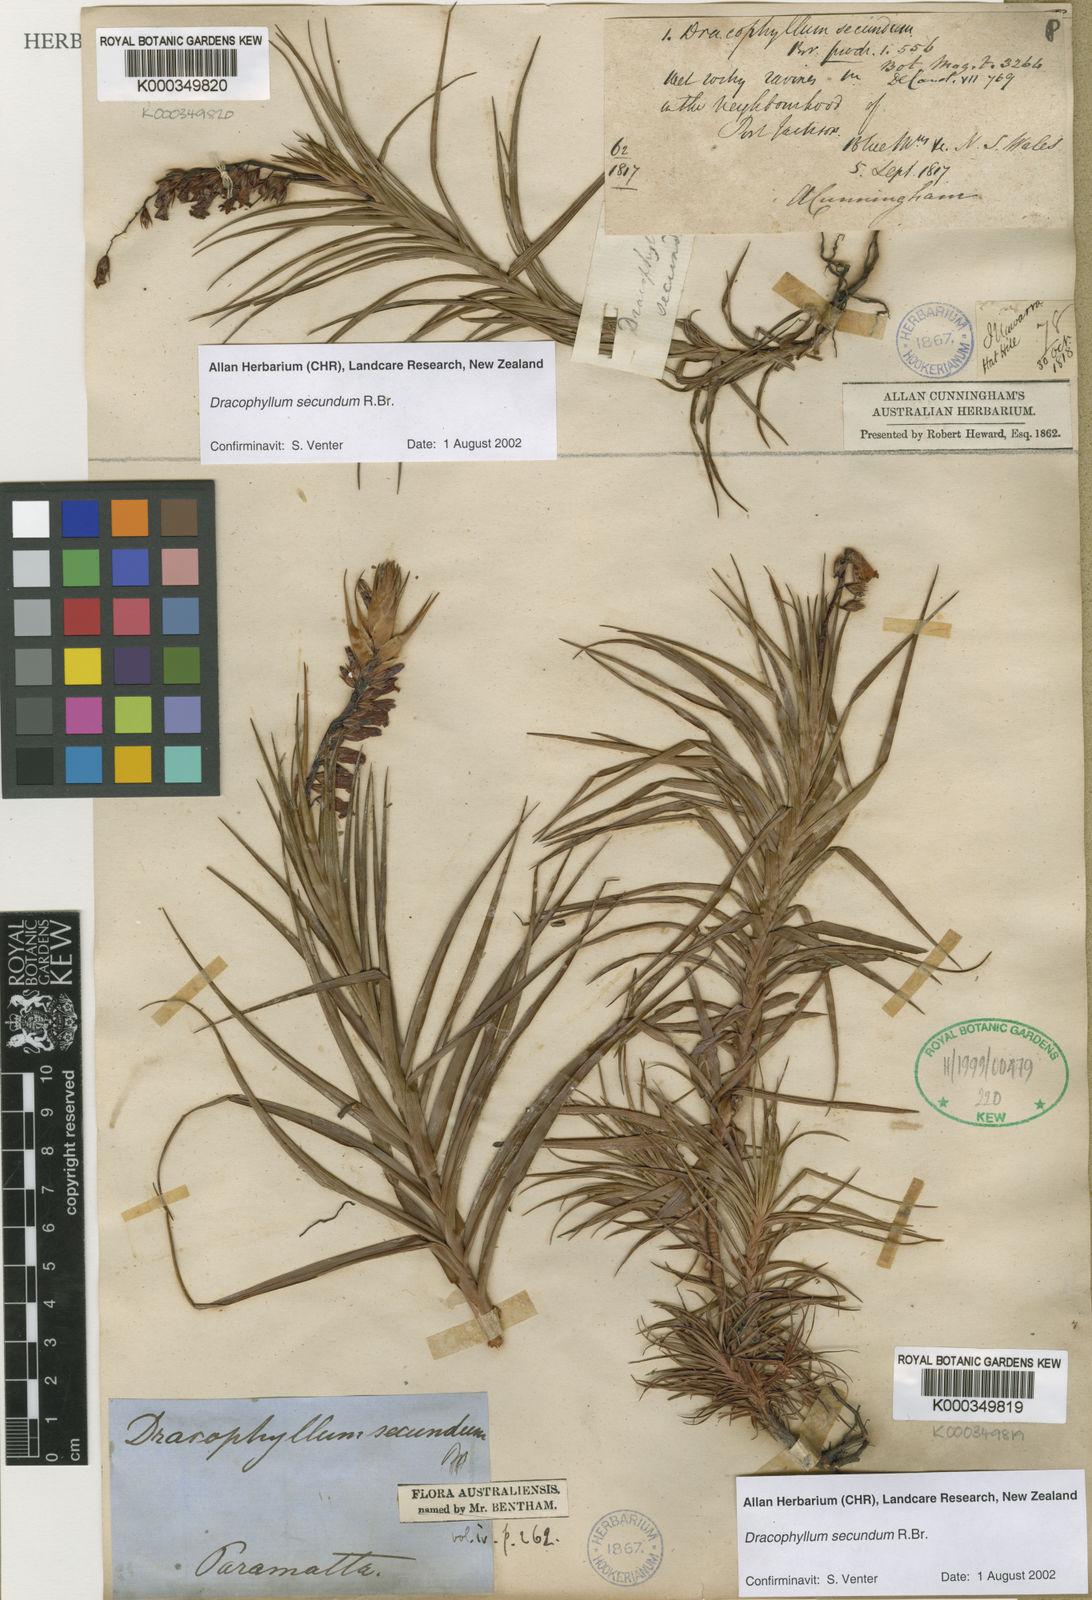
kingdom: Plantae
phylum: Tracheophyta
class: Magnoliopsida
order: Ericales
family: Ericaceae
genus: Dracophyllum
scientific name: Dracophyllum secundum
